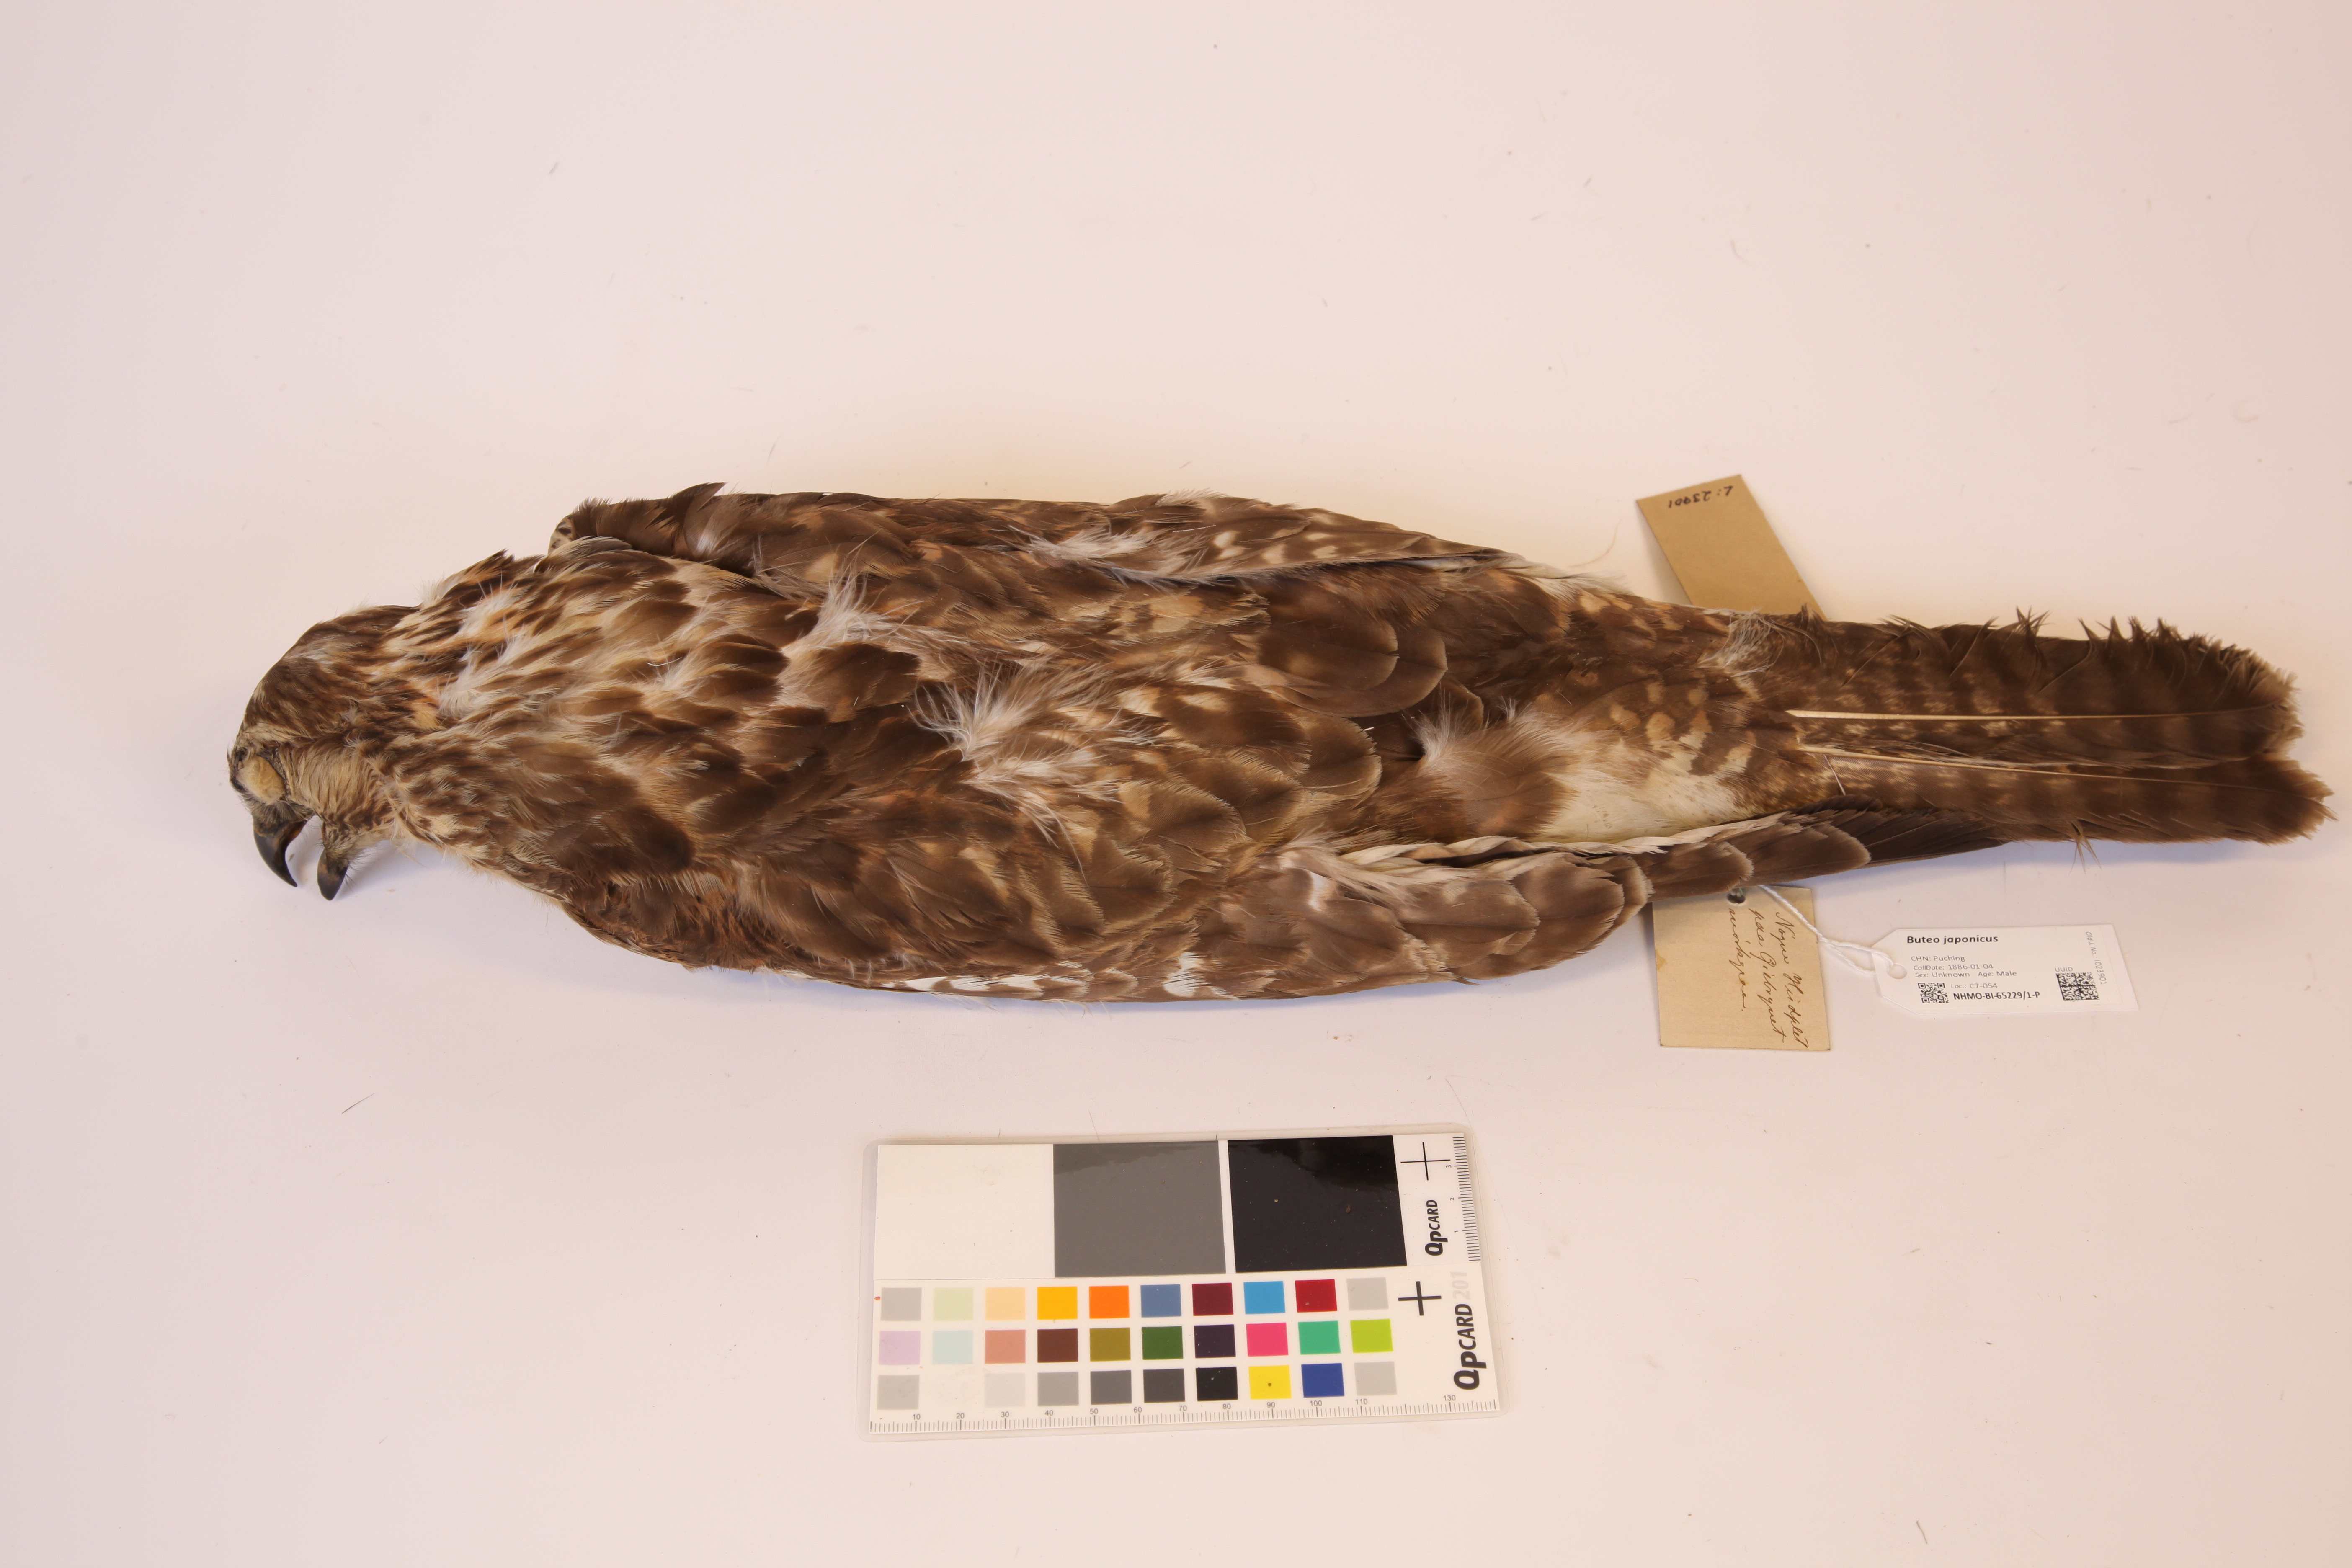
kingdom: Animalia
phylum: Chordata
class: Aves
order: Accipitriformes
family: Accipitridae
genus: Buteo
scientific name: Buteo japonicus
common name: Eastern buzzard
